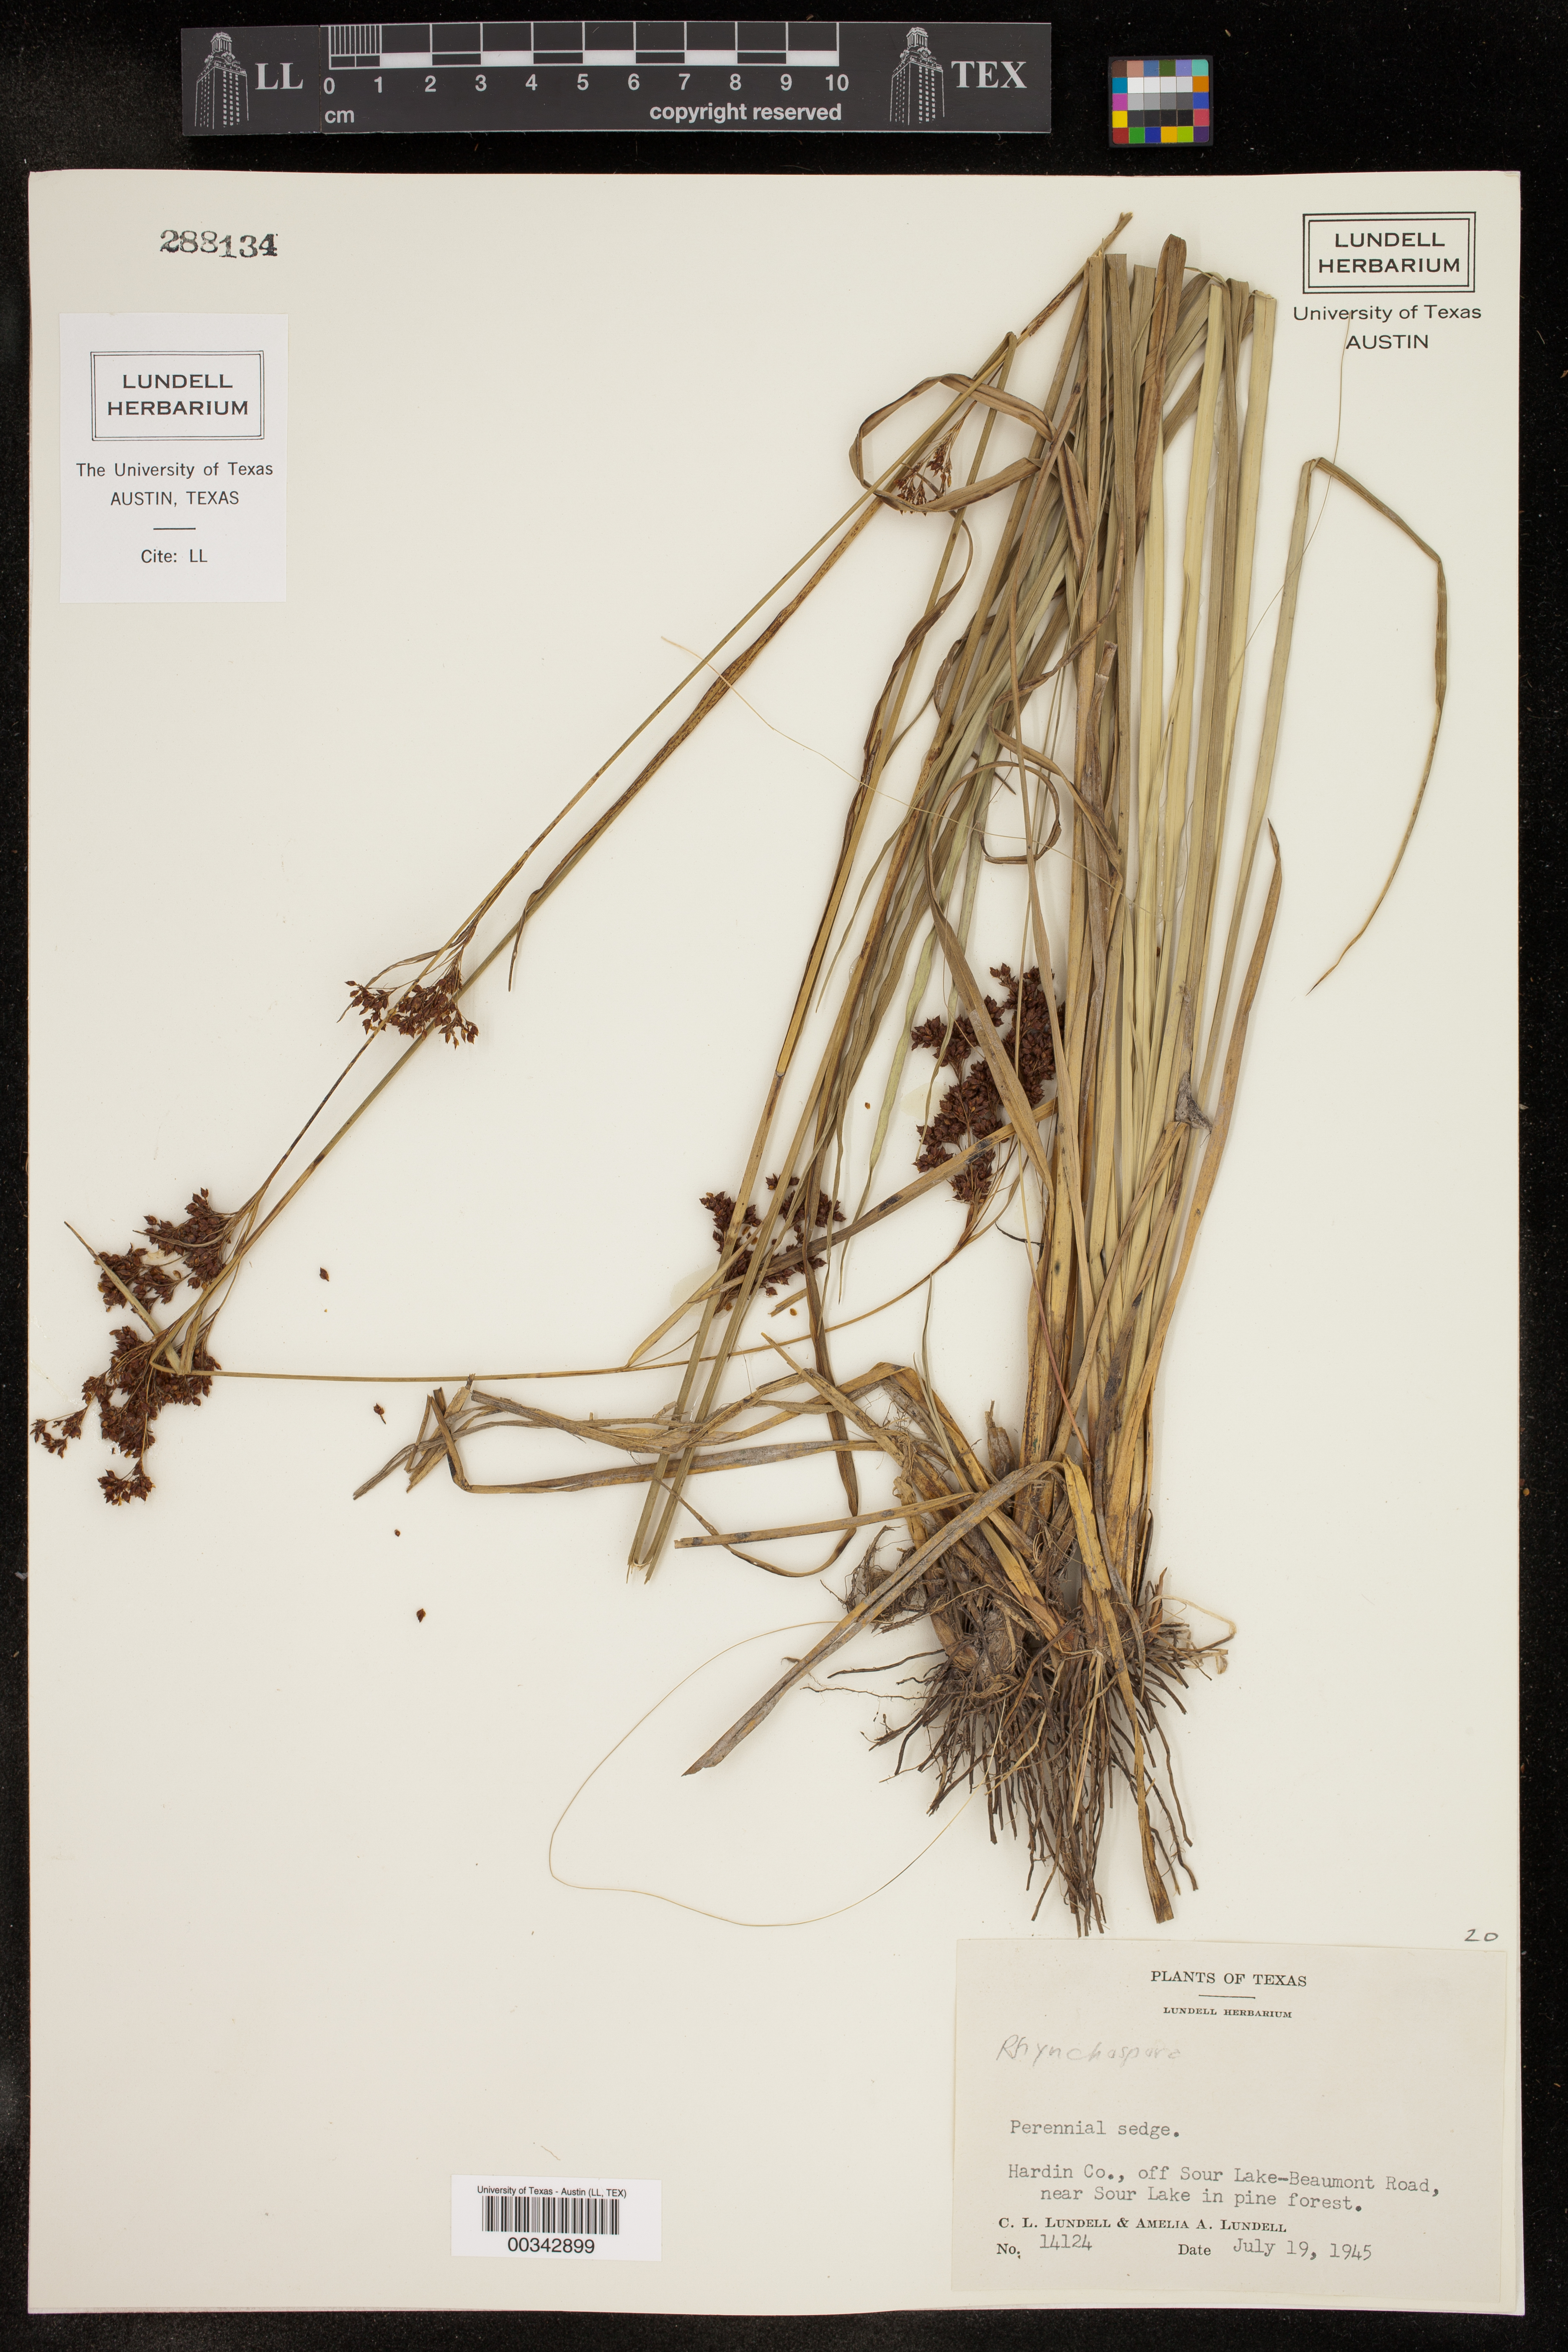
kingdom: Plantae
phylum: Tracheophyta
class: Liliopsida
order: Poales
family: Cyperaceae
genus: Rhynchospora
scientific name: Rhynchospora
